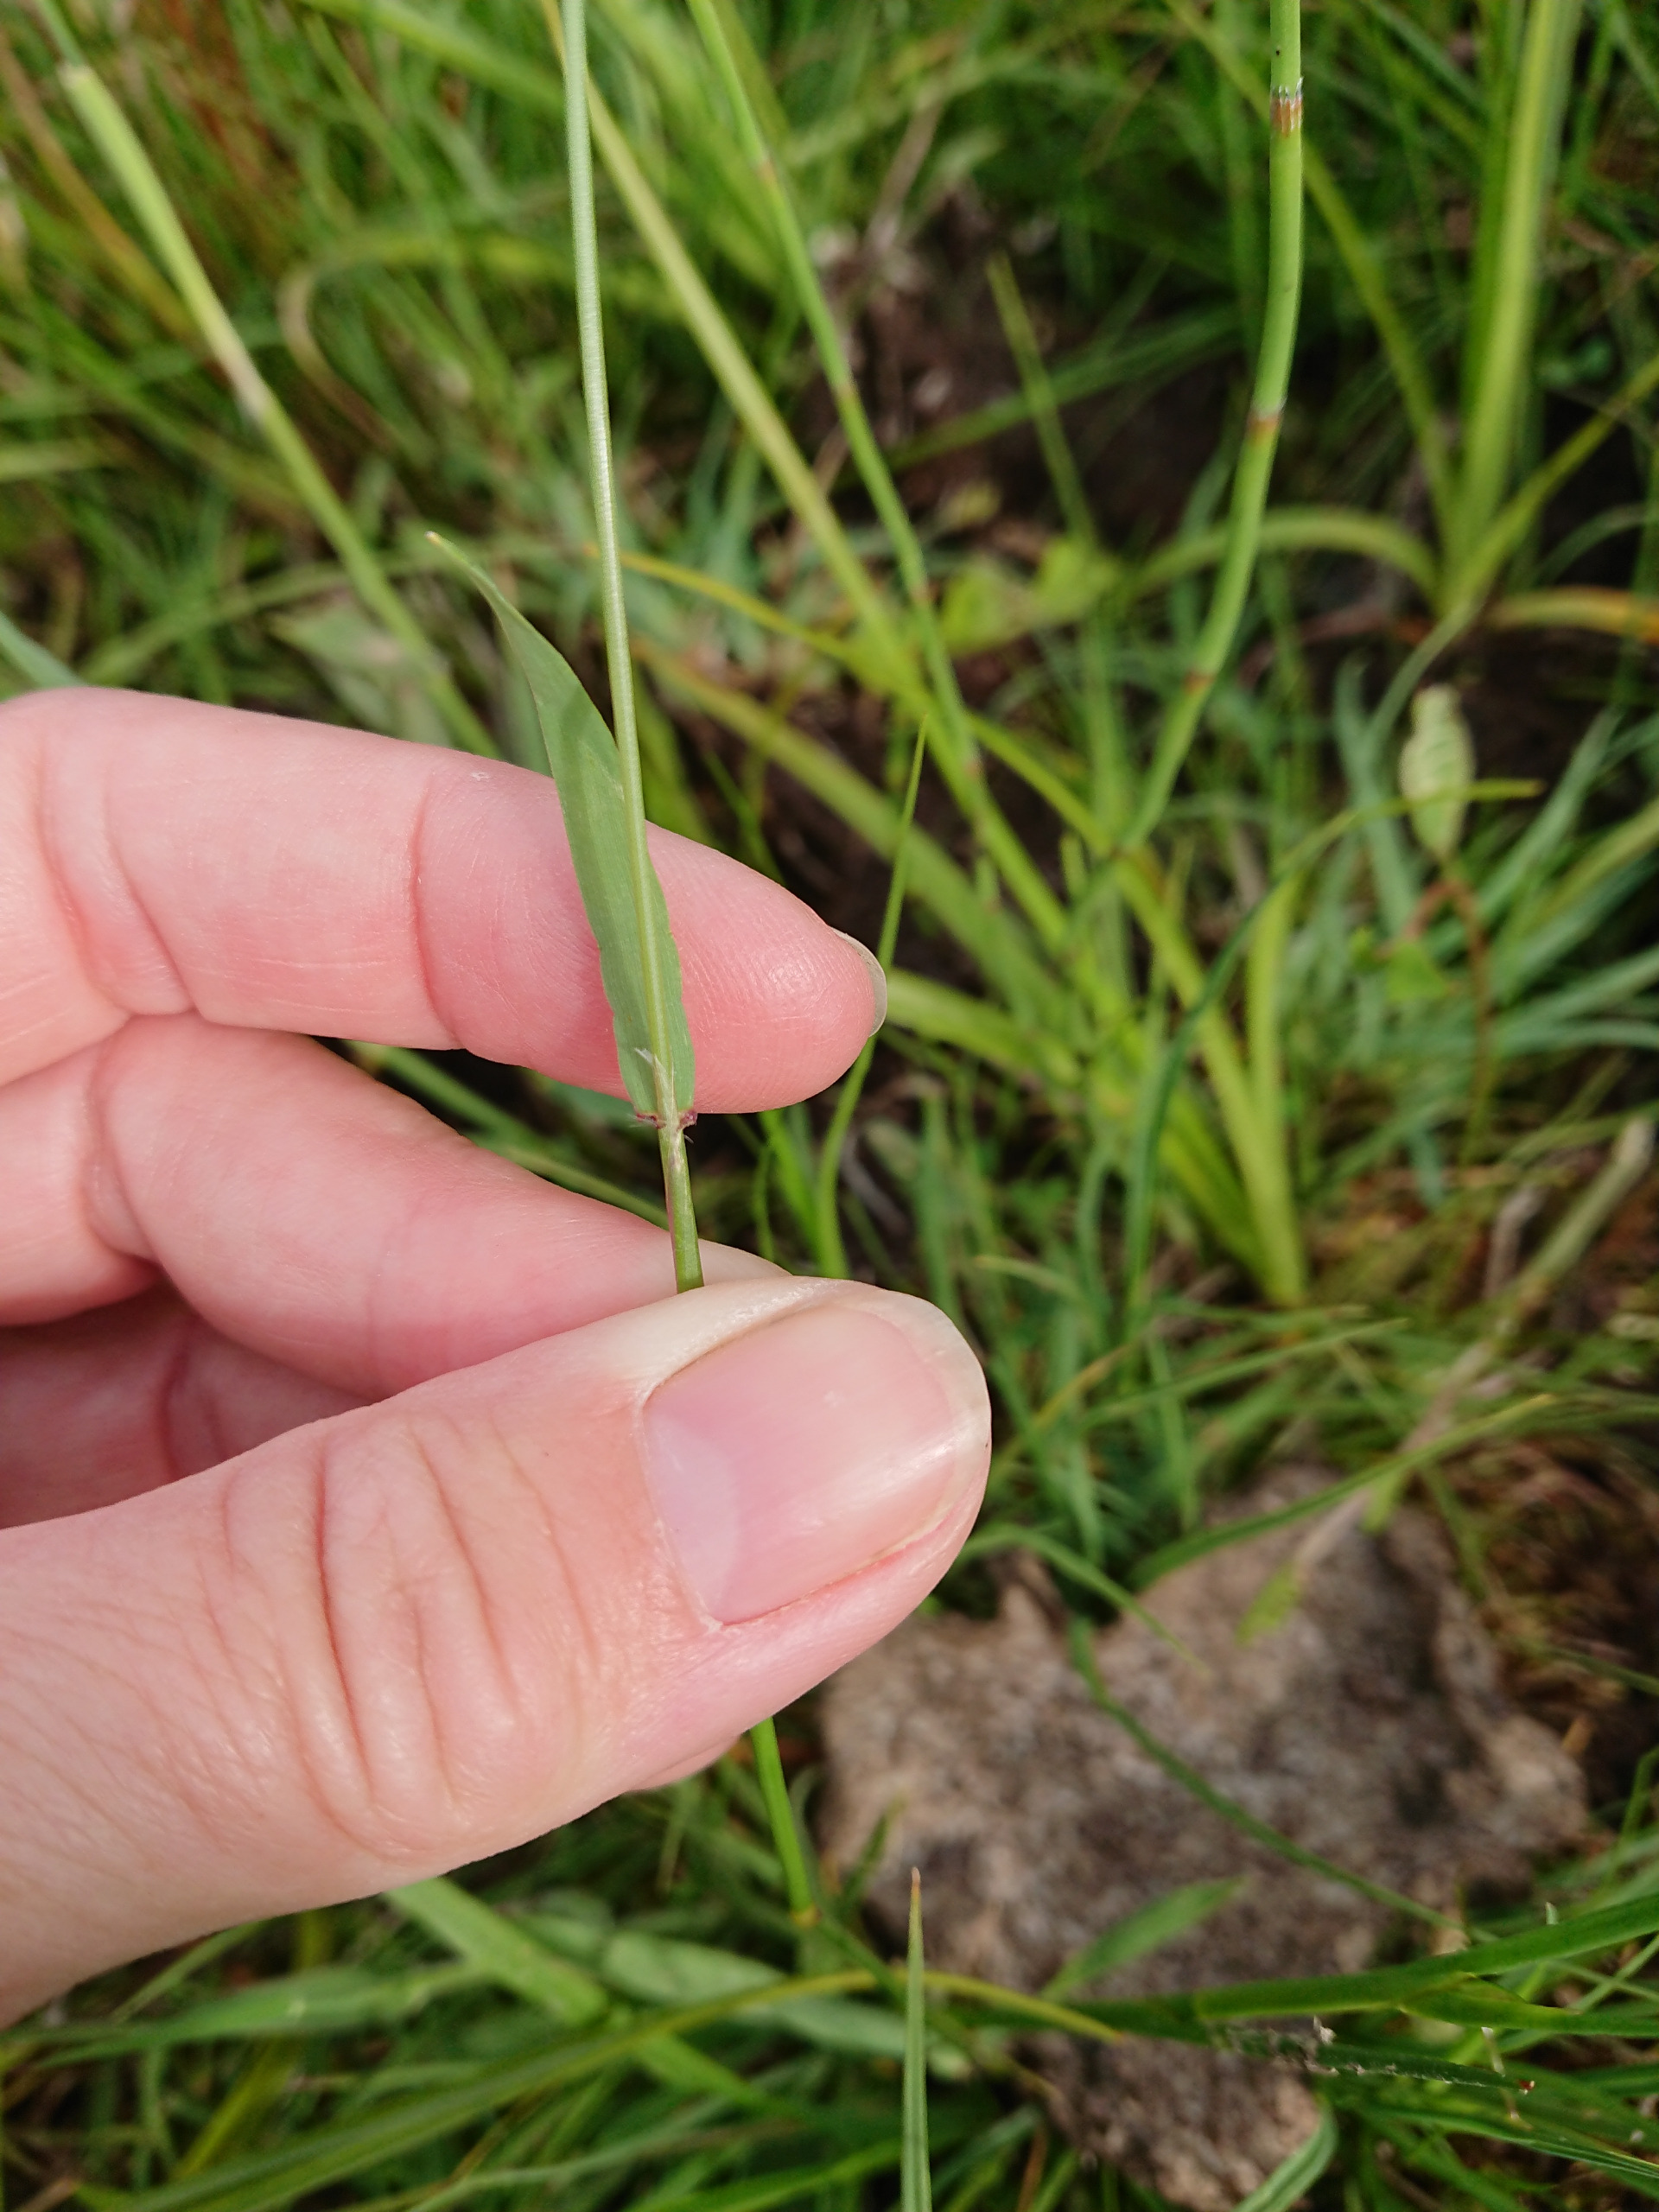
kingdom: Plantae
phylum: Tracheophyta
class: Liliopsida
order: Poales
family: Poaceae
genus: Anthoxanthum
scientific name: Anthoxanthum odoratum
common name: Vellugtende gulaks
